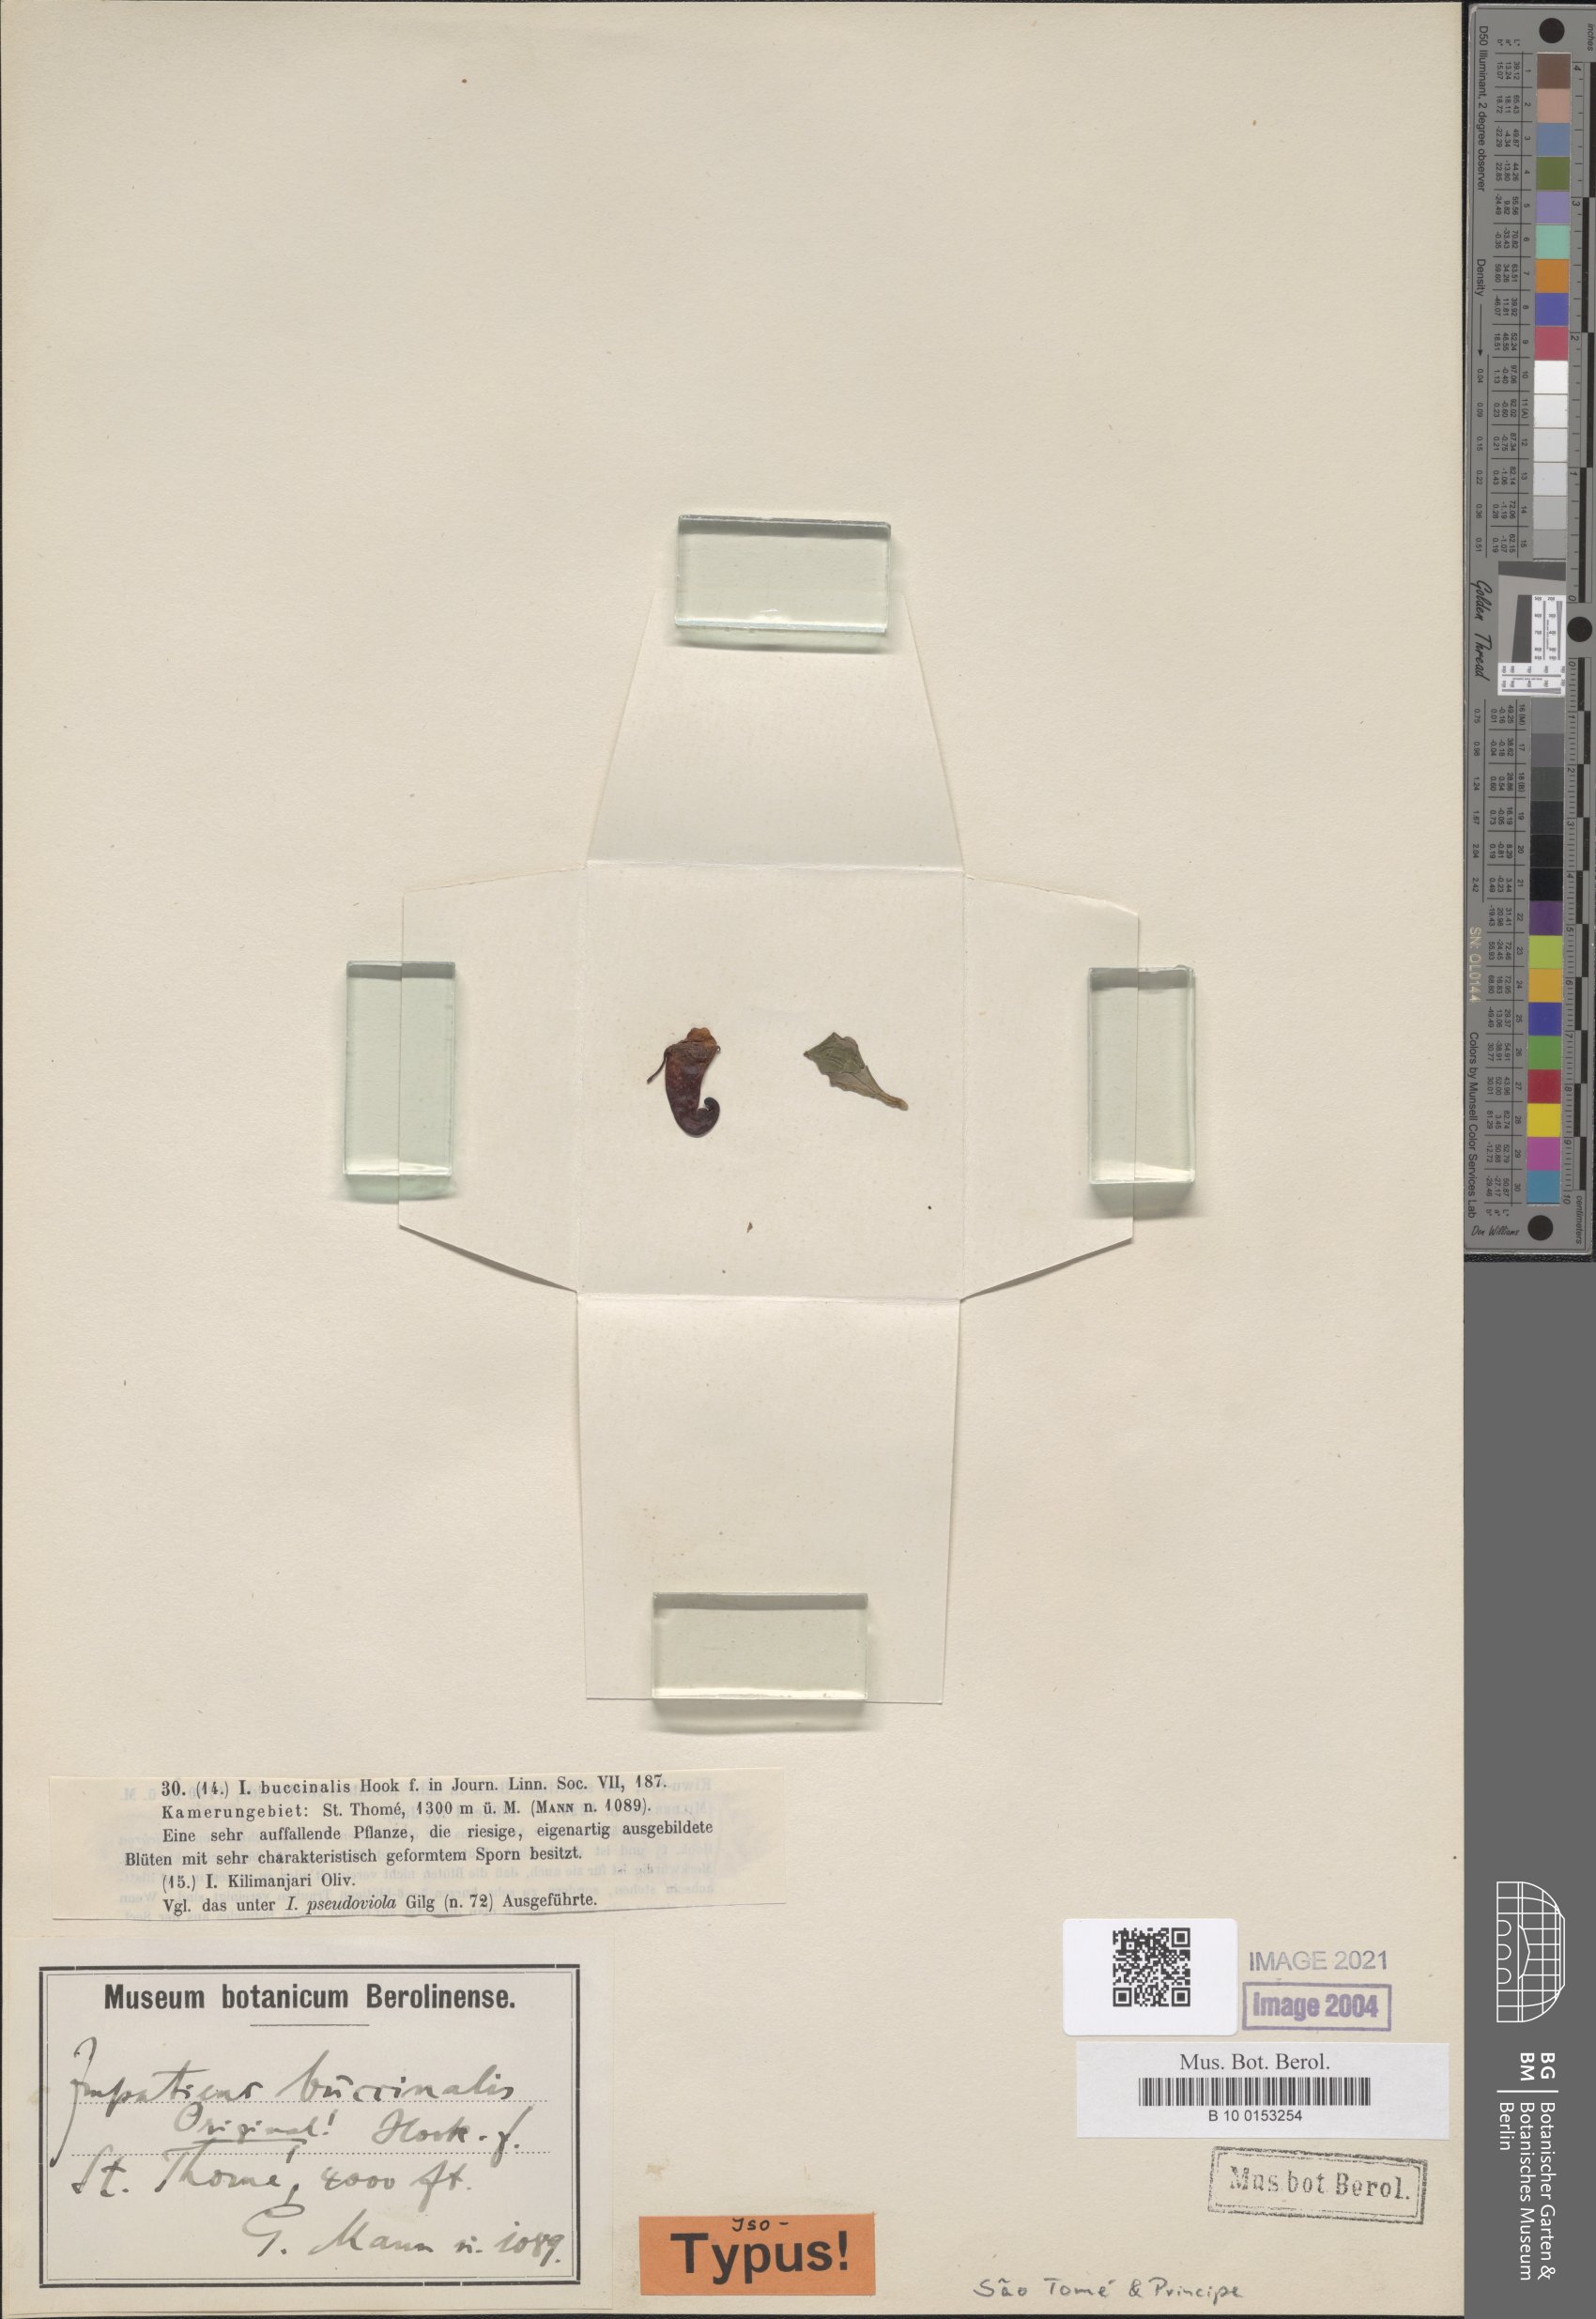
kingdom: Plantae
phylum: Tracheophyta
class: Magnoliopsida
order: Ericales
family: Balsaminaceae
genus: Impatiens
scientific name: Impatiens buccinalis
